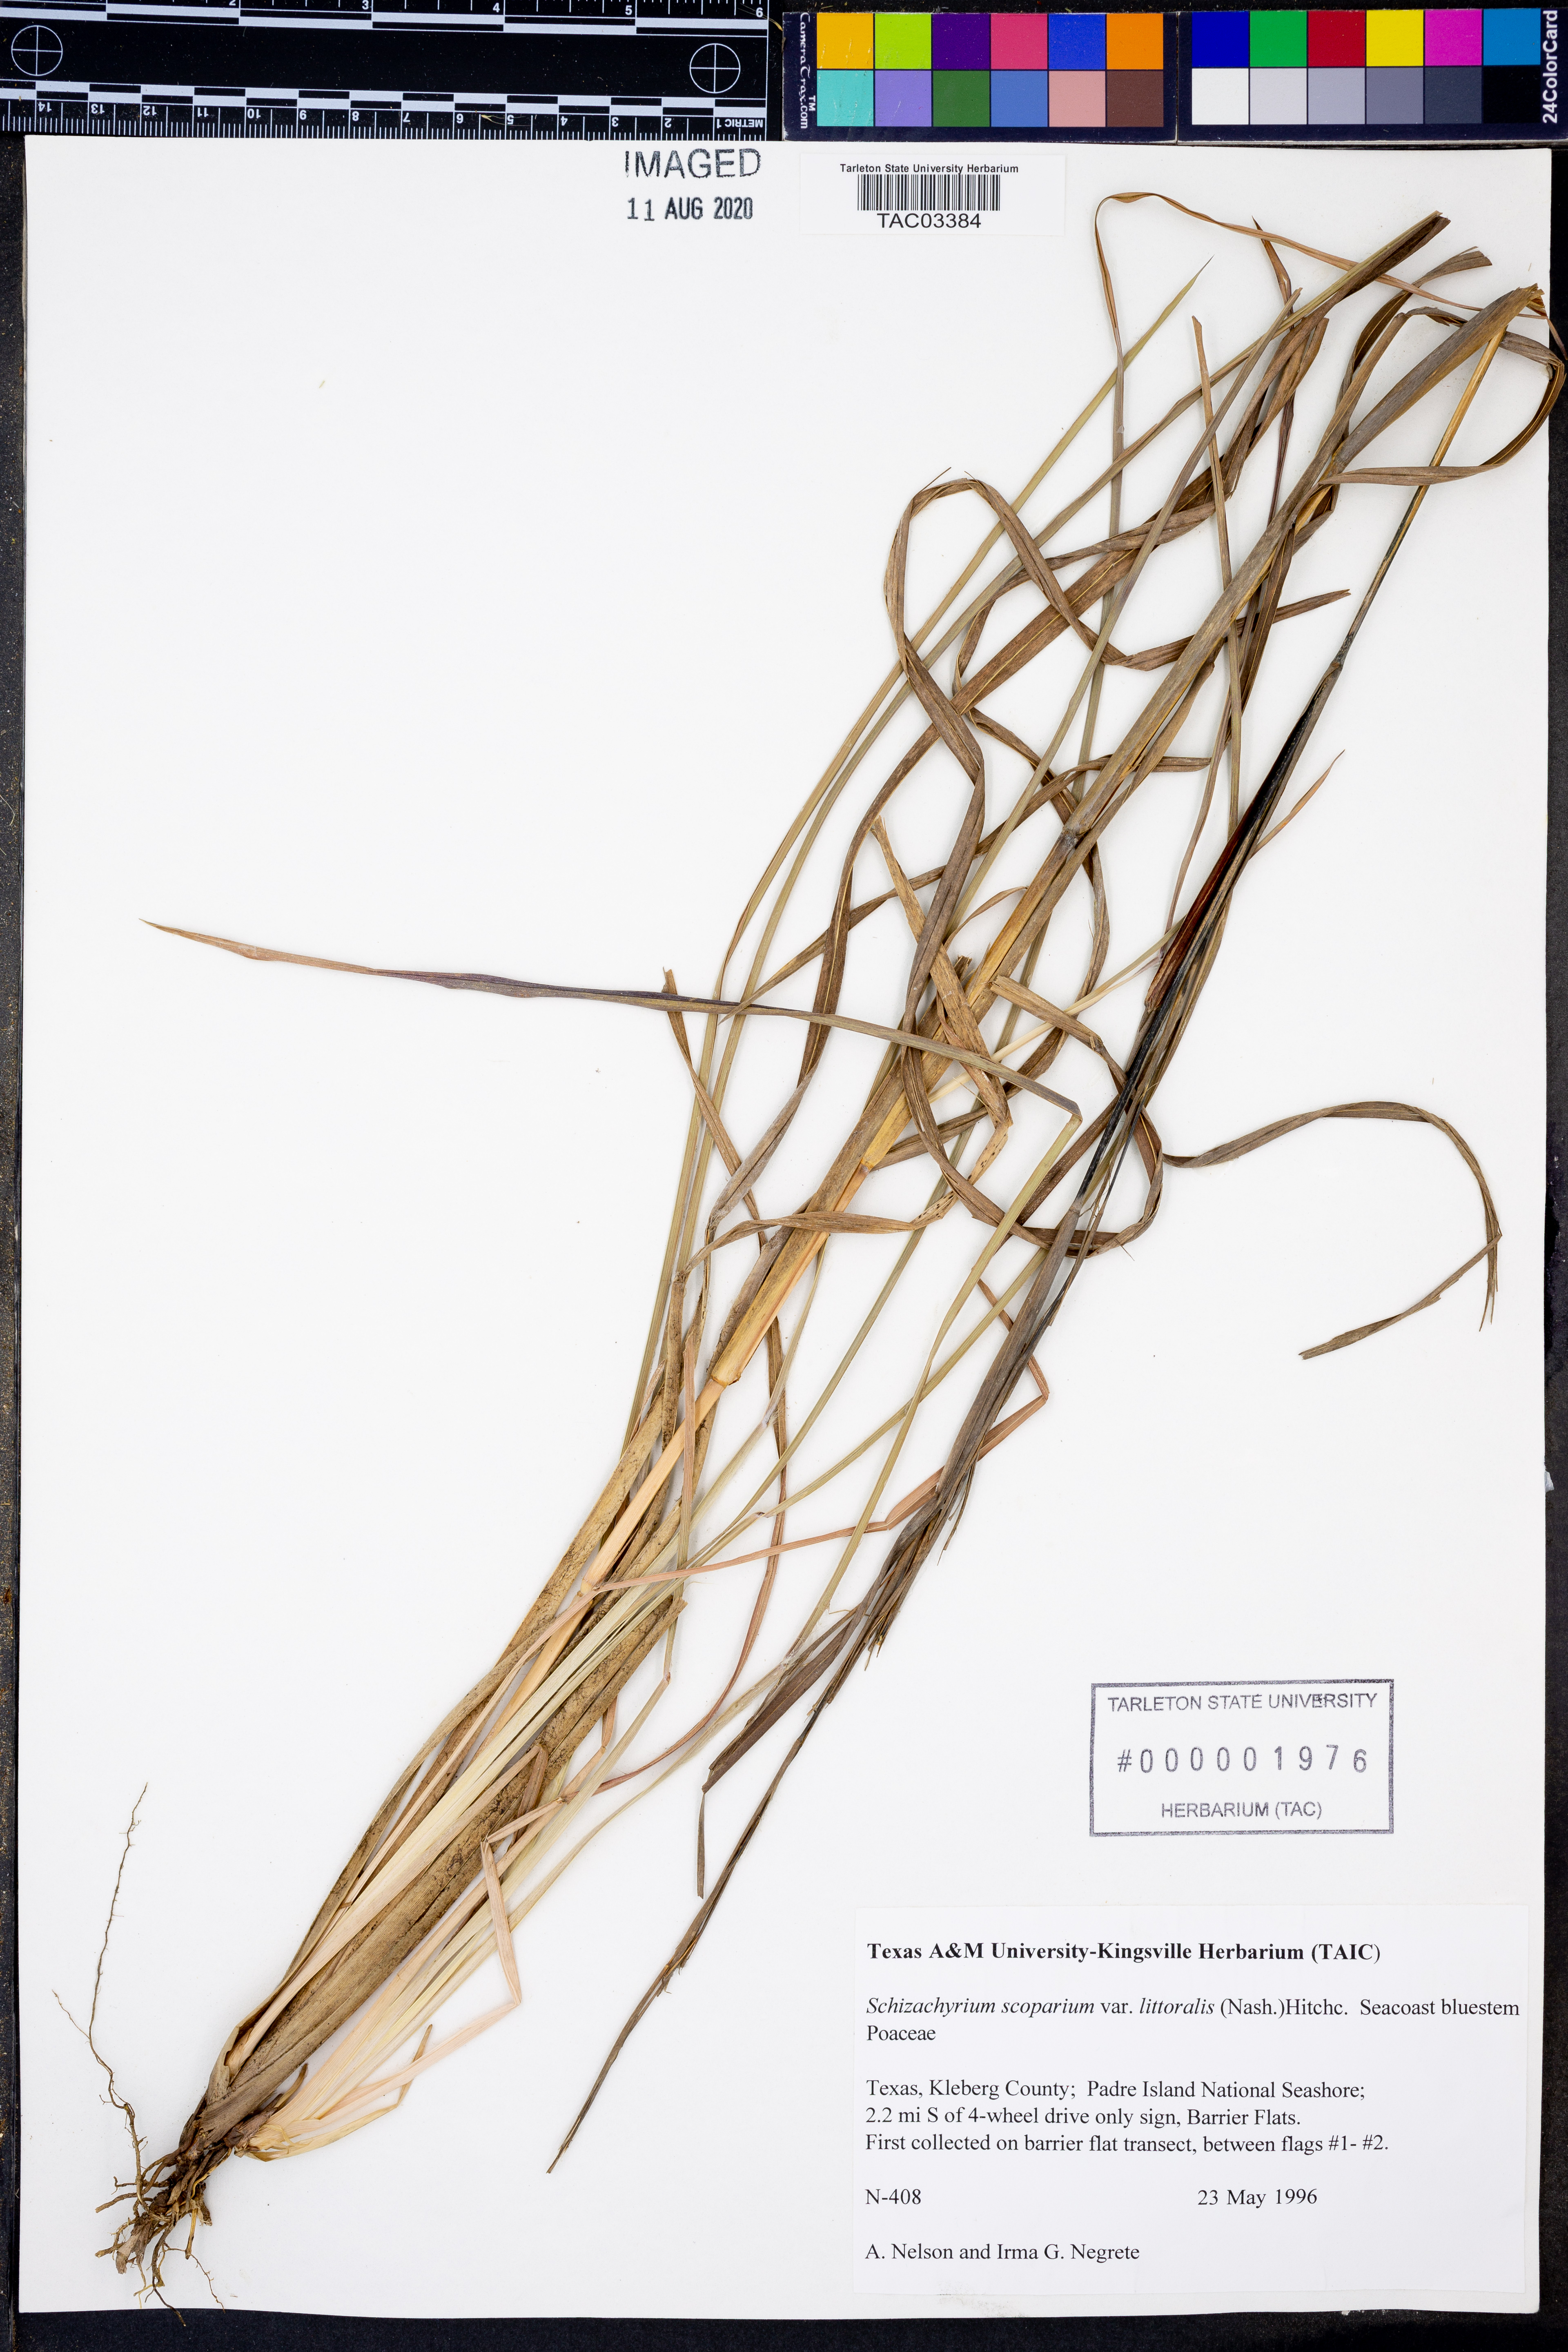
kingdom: Plantae
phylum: Tracheophyta
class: Liliopsida
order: Poales
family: Poaceae
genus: Schizachyrium
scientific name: Schizachyrium scoparium
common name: Little bluestem
